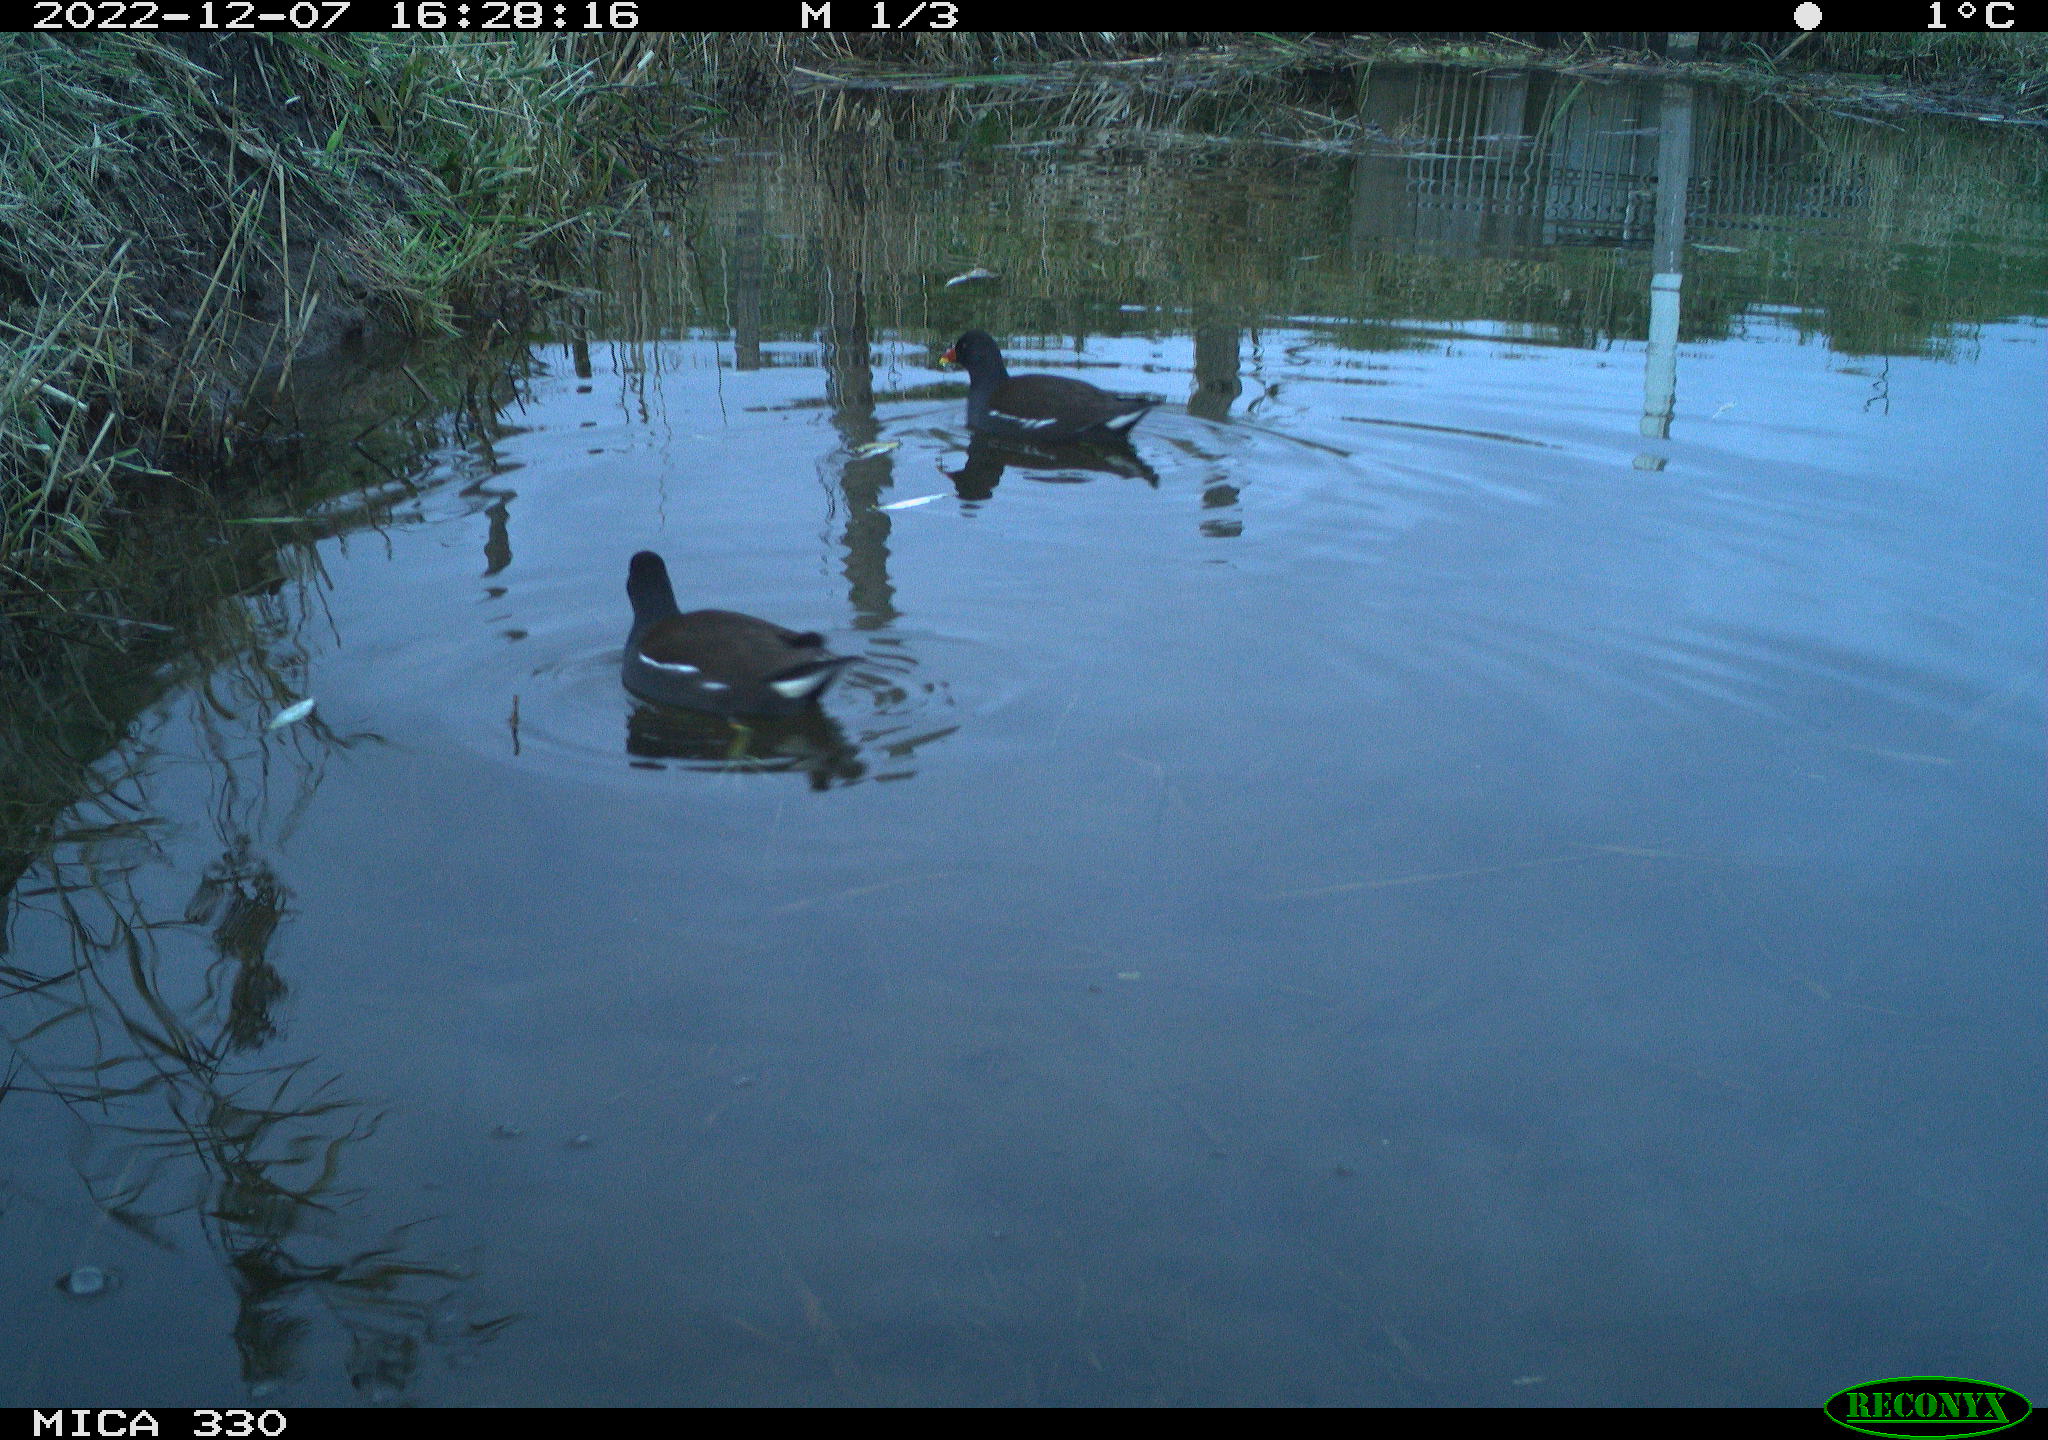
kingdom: Animalia
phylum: Chordata
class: Aves
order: Gruiformes
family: Rallidae
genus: Gallinula
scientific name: Gallinula chloropus
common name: Common moorhen
